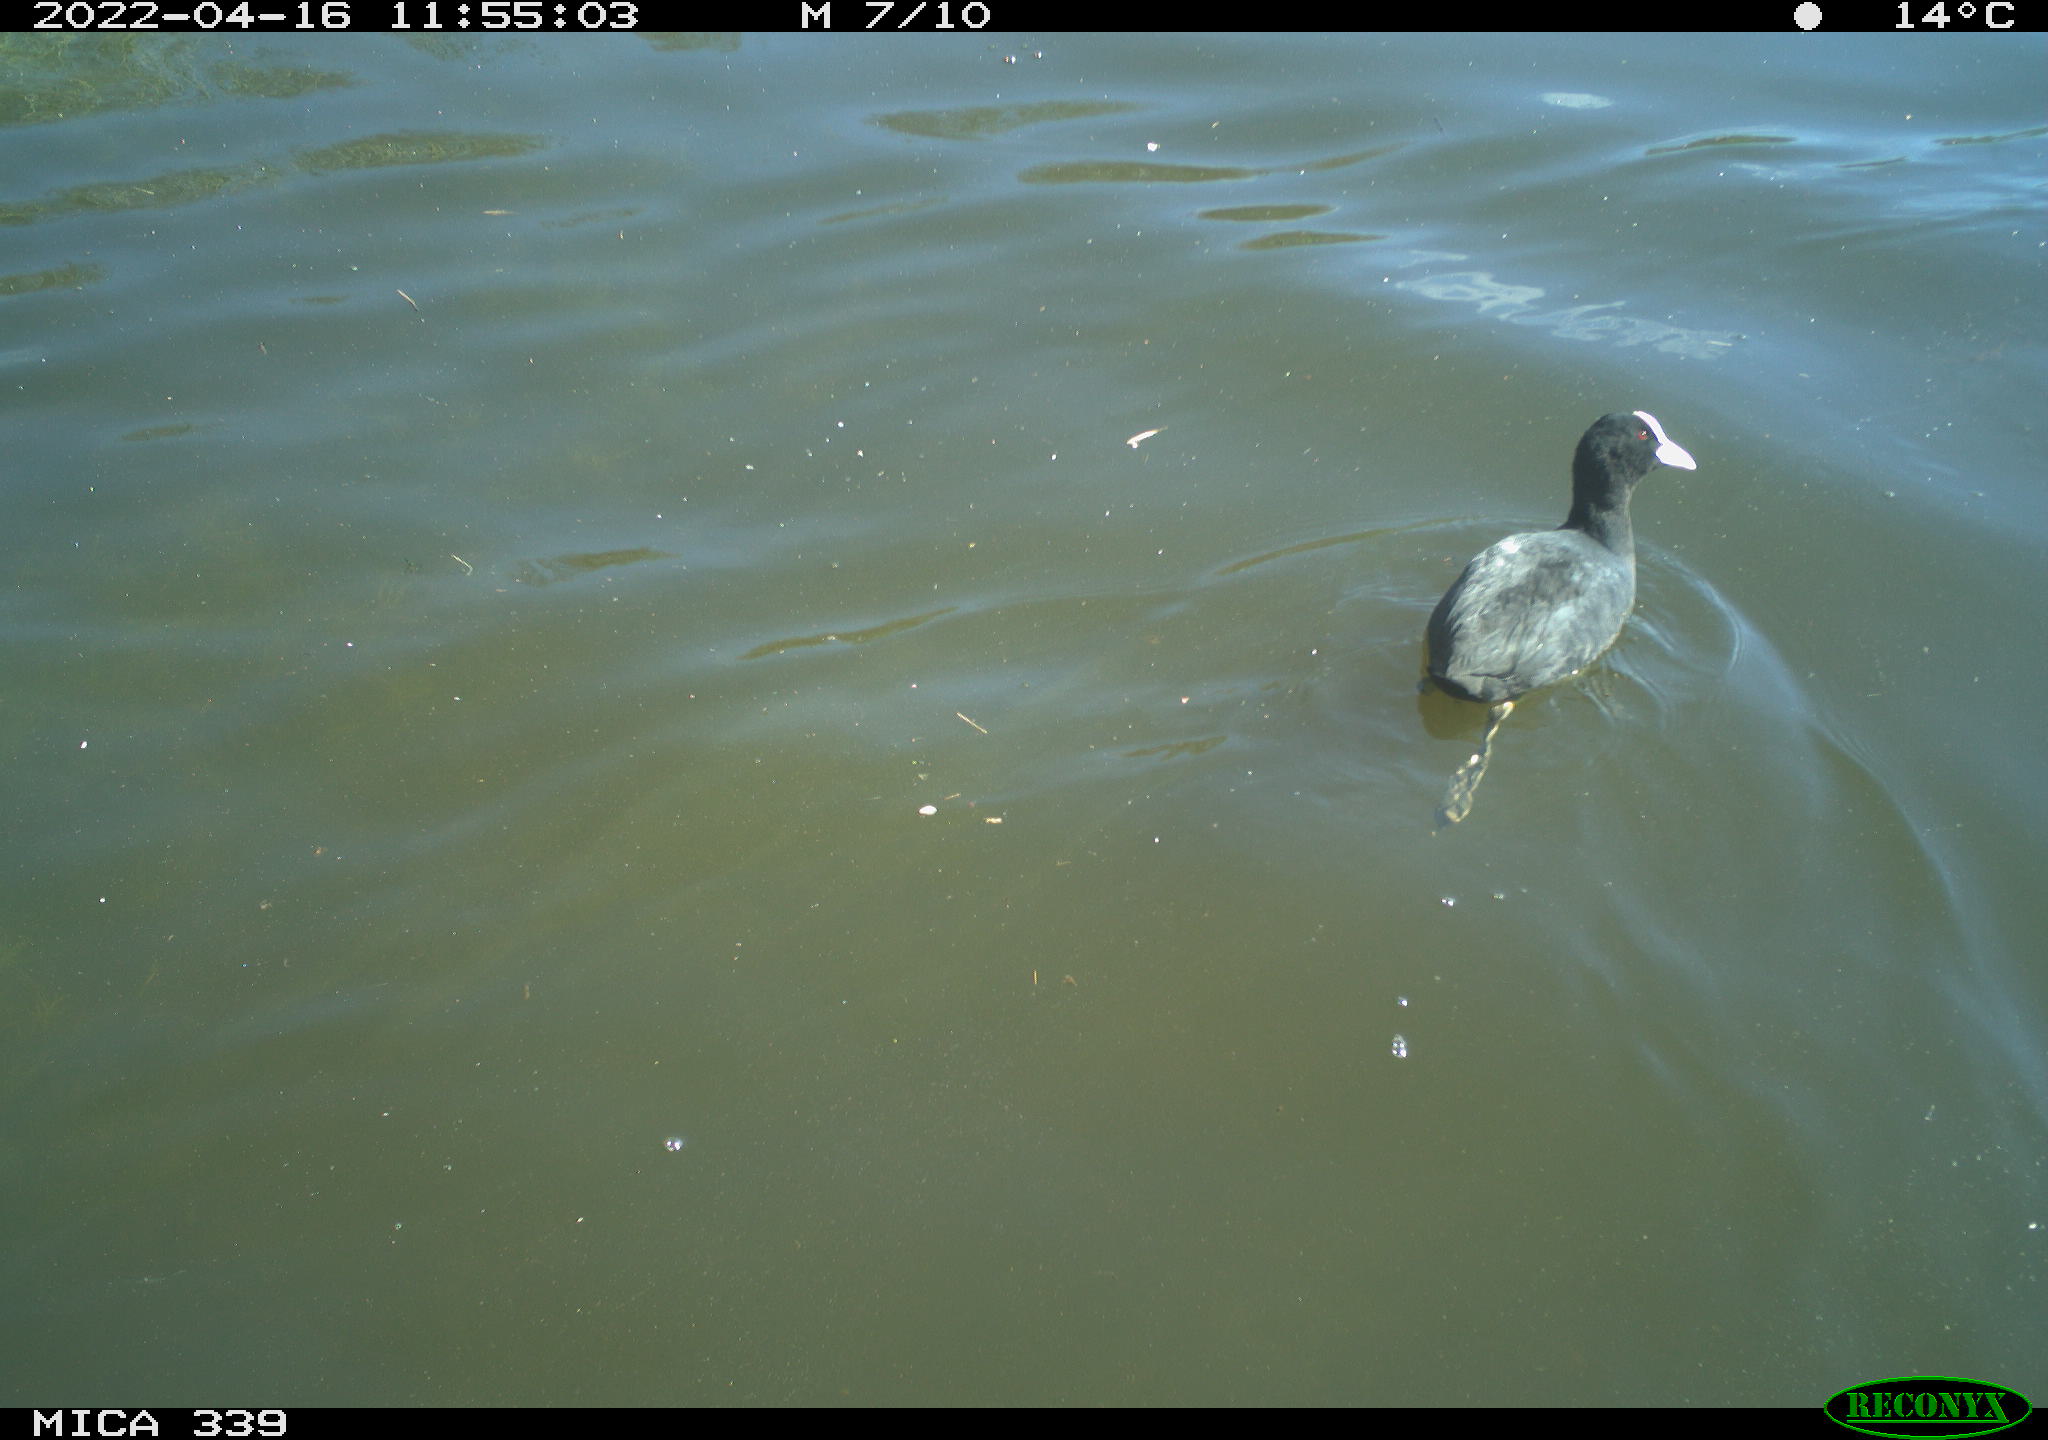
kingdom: Animalia
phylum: Chordata
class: Aves
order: Gruiformes
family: Rallidae
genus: Fulica
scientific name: Fulica atra
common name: Eurasian coot
